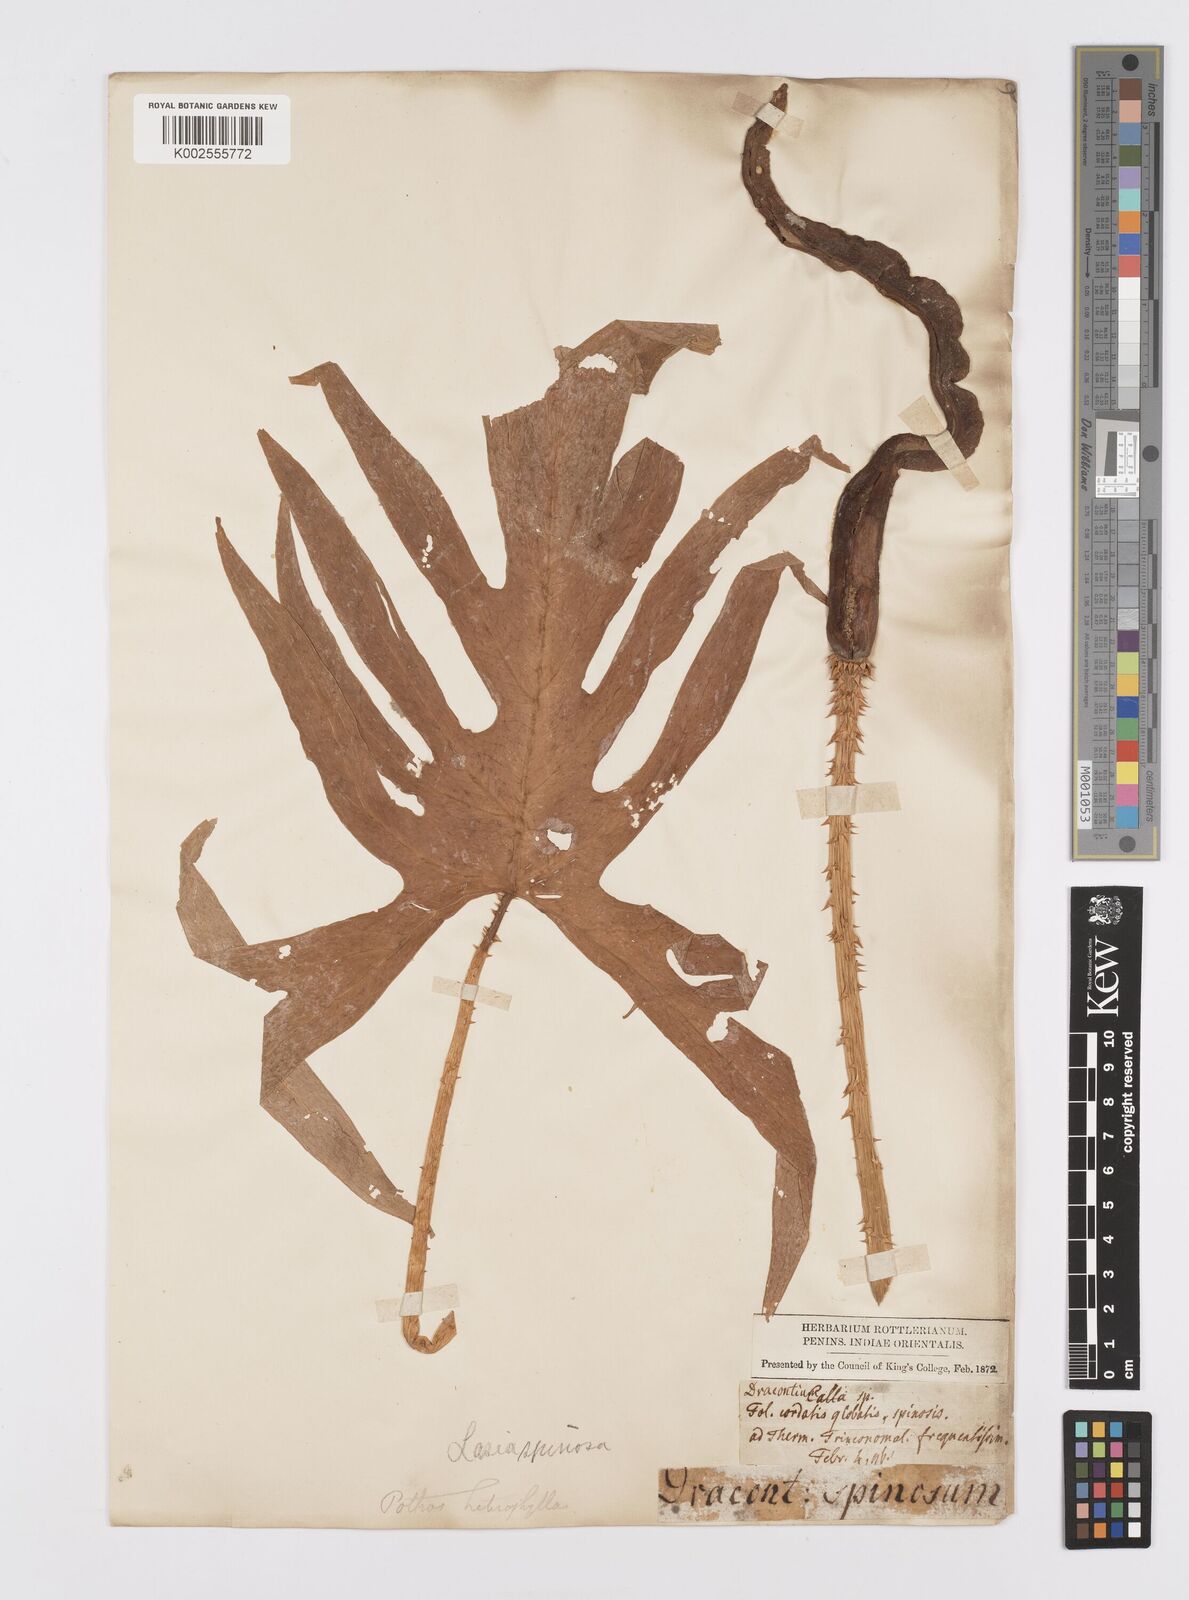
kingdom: Plantae
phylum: Tracheophyta
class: Liliopsida
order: Alismatales
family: Araceae
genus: Lasia
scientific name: Lasia spinosa
